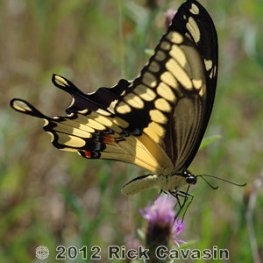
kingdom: Animalia
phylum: Arthropoda
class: Insecta
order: Lepidoptera
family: Papilionidae
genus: Papilio
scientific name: Papilio cresphontes
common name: Eastern Giant Swallowtail
